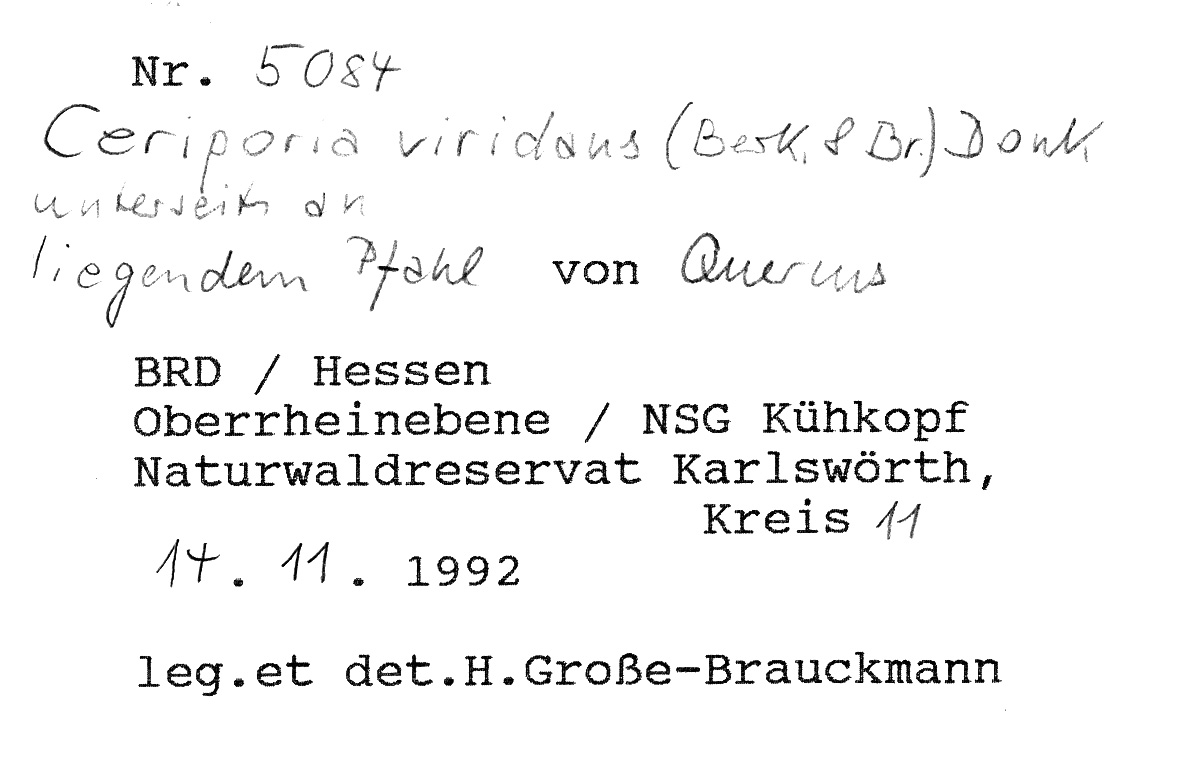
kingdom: Plantae
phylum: Tracheophyta
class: Magnoliopsida
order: Fagales
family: Fagaceae
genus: Quercus
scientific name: Quercus
